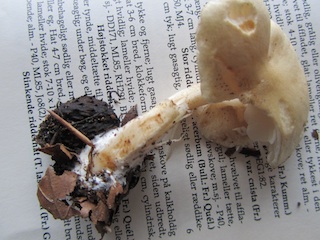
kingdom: Fungi
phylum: Basidiomycota
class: Agaricomycetes
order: Agaricales
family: Tricholomataceae
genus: Tricholoma
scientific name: Tricholoma lascivum
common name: stinkende ridderhat
